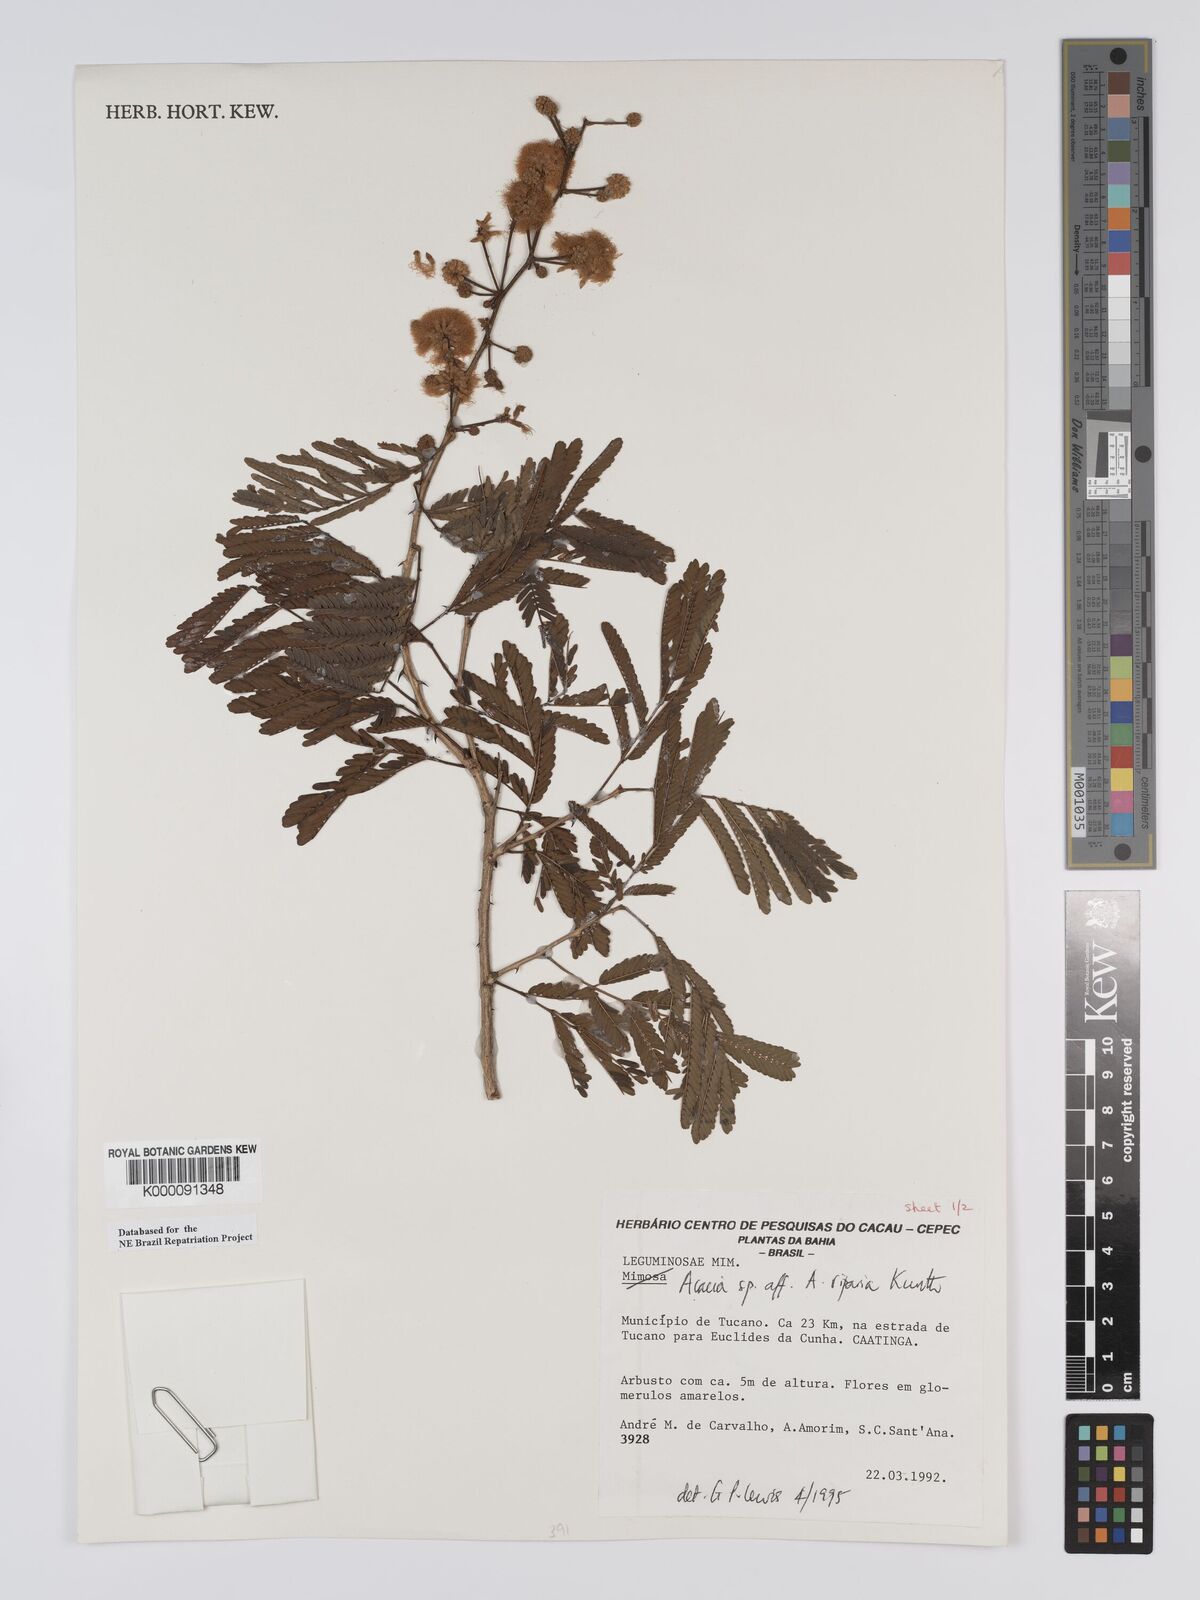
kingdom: Plantae
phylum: Tracheophyta
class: Magnoliopsida
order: Fabales
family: Fabaceae
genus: Senegalia
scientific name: Senegalia riparia
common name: Catch-and-keep
